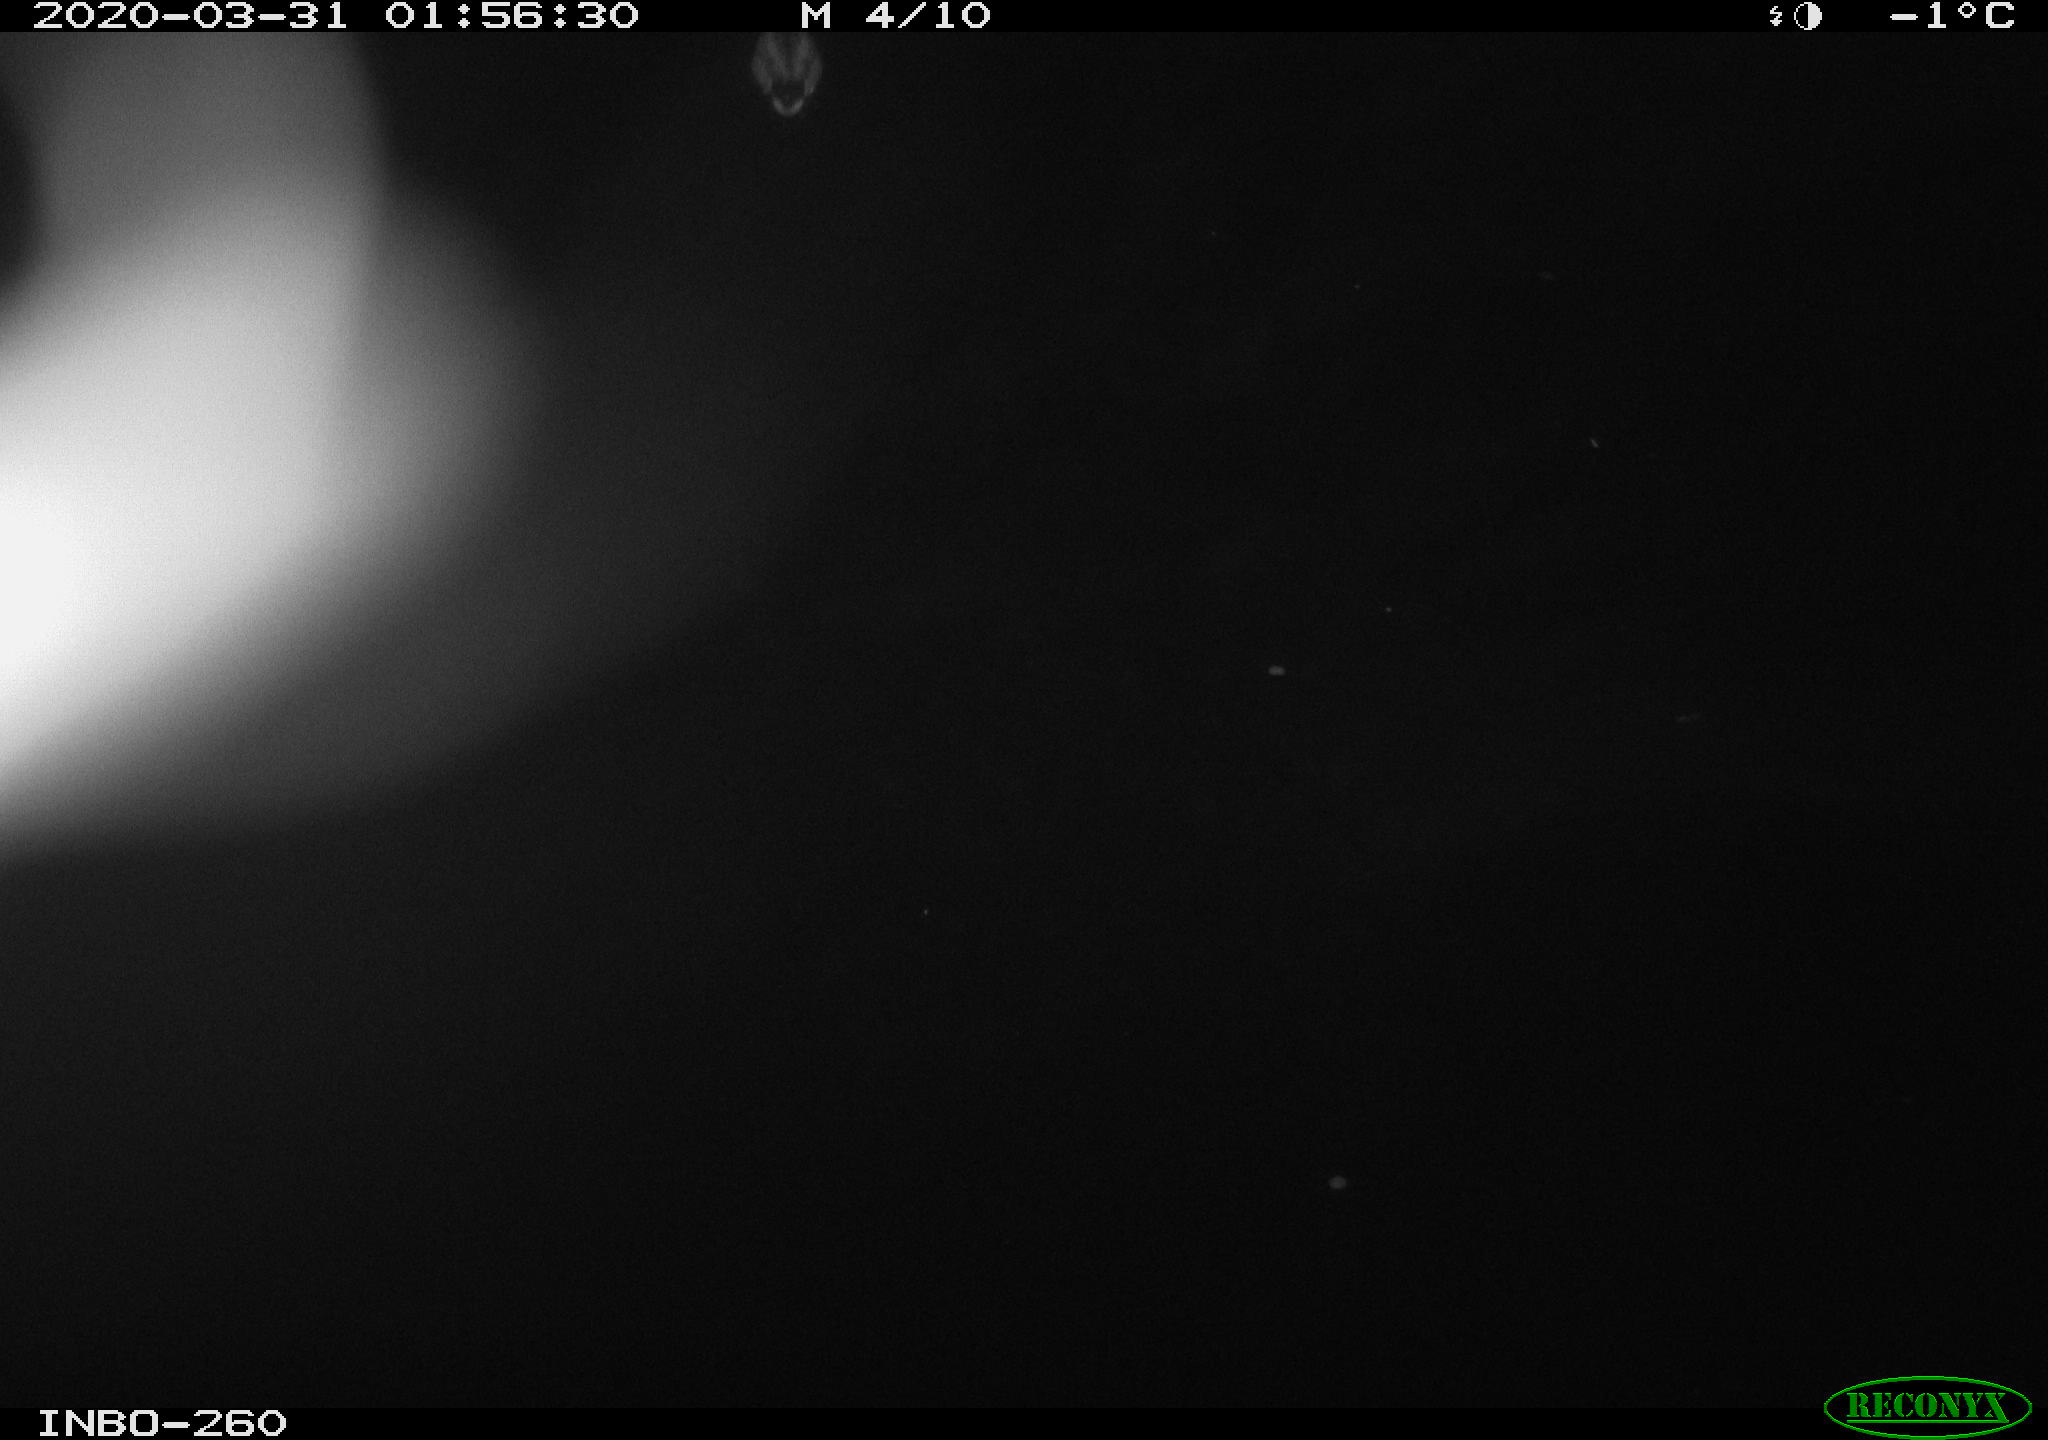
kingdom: Animalia
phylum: Chordata
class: Aves
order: Anseriformes
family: Anatidae
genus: Anas
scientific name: Anas platyrhynchos
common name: Mallard
